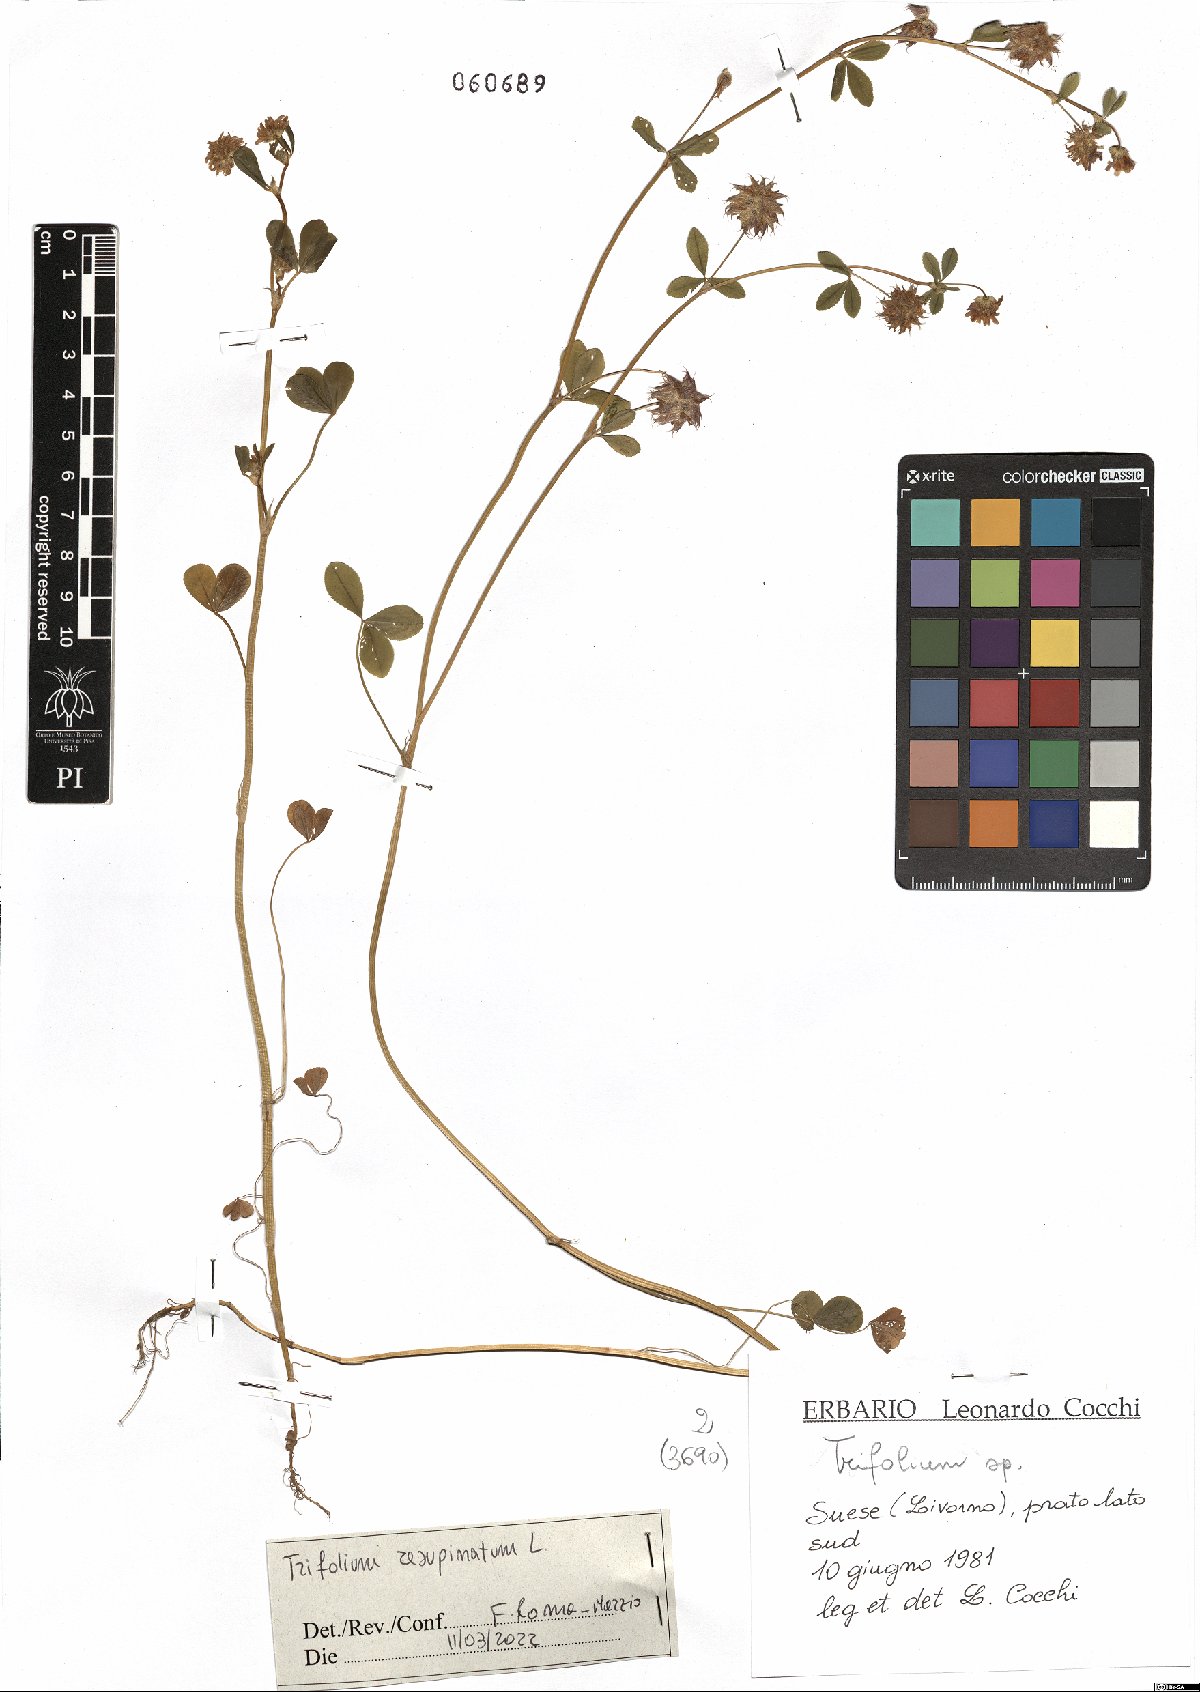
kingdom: Plantae
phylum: Tracheophyta
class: Magnoliopsida
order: Fabales
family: Fabaceae
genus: Trifolium
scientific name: Trifolium resupinatum
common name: Reversed clover
